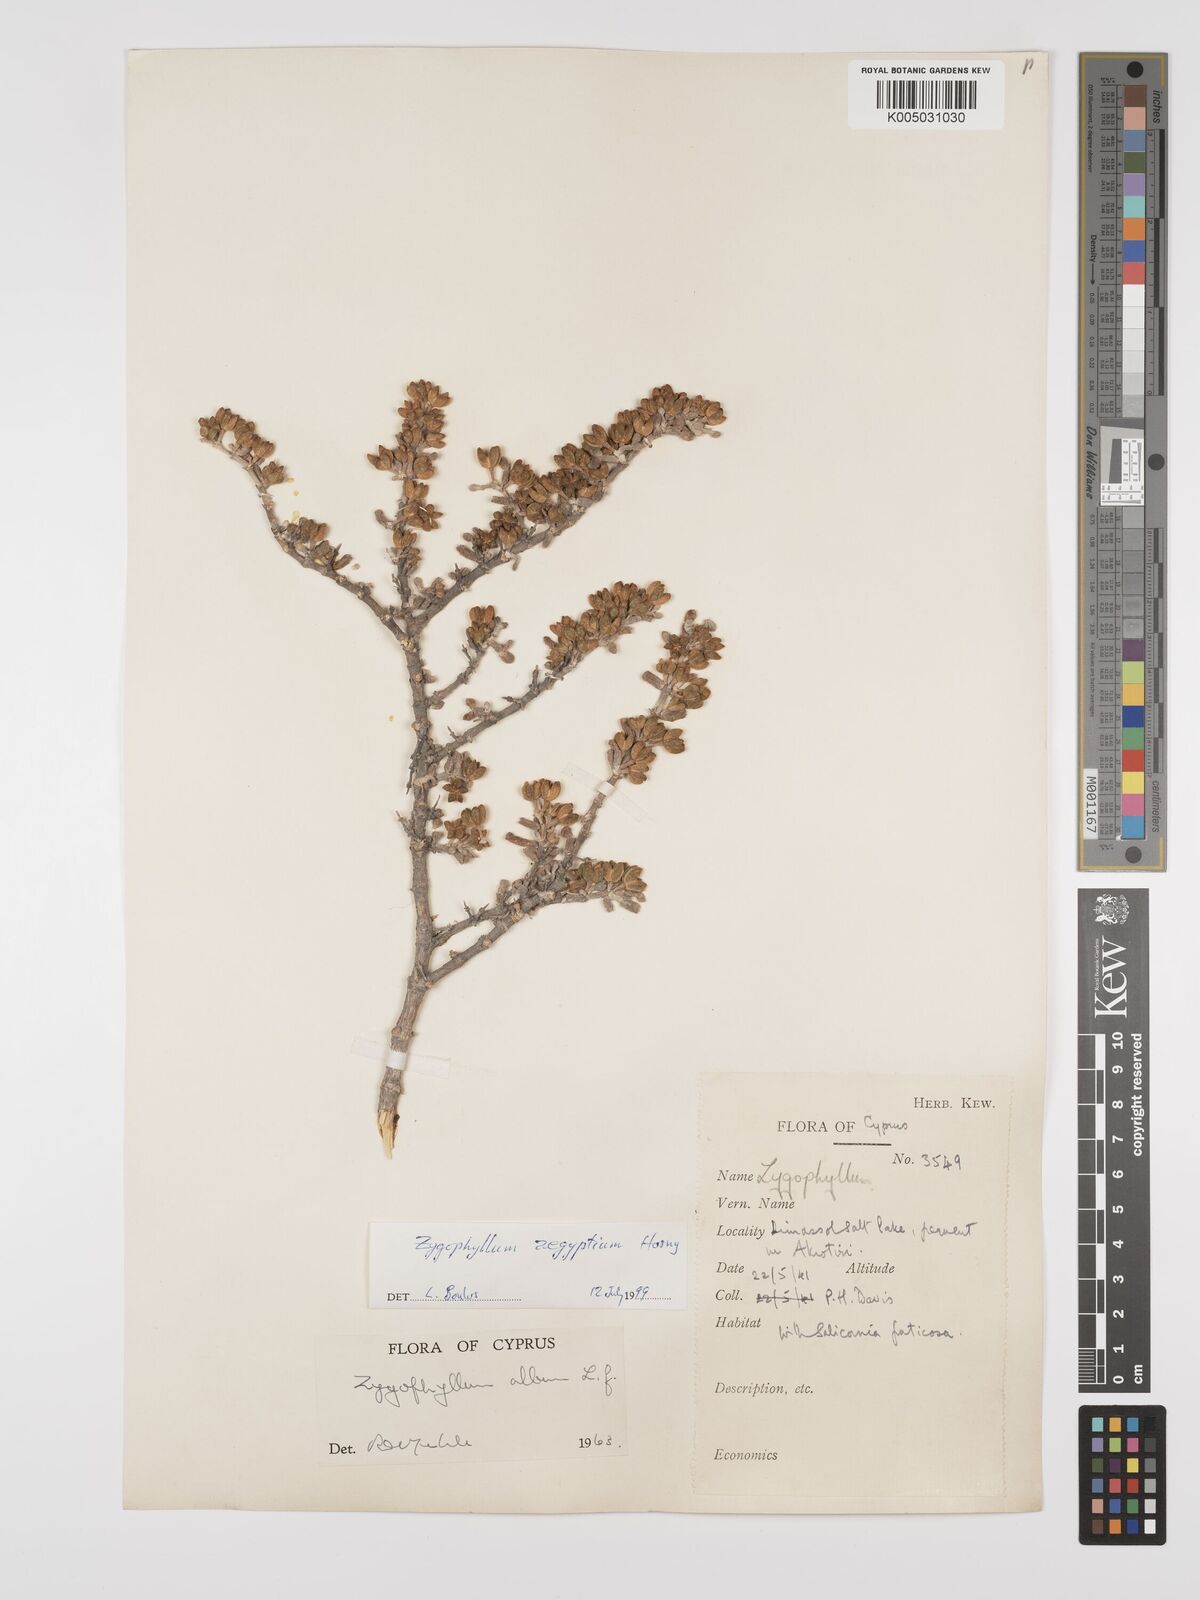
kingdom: Plantae
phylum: Tracheophyta
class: Magnoliopsida
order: Zygophyllales
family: Zygophyllaceae
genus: Zygophyllum
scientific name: Zygophyllum
